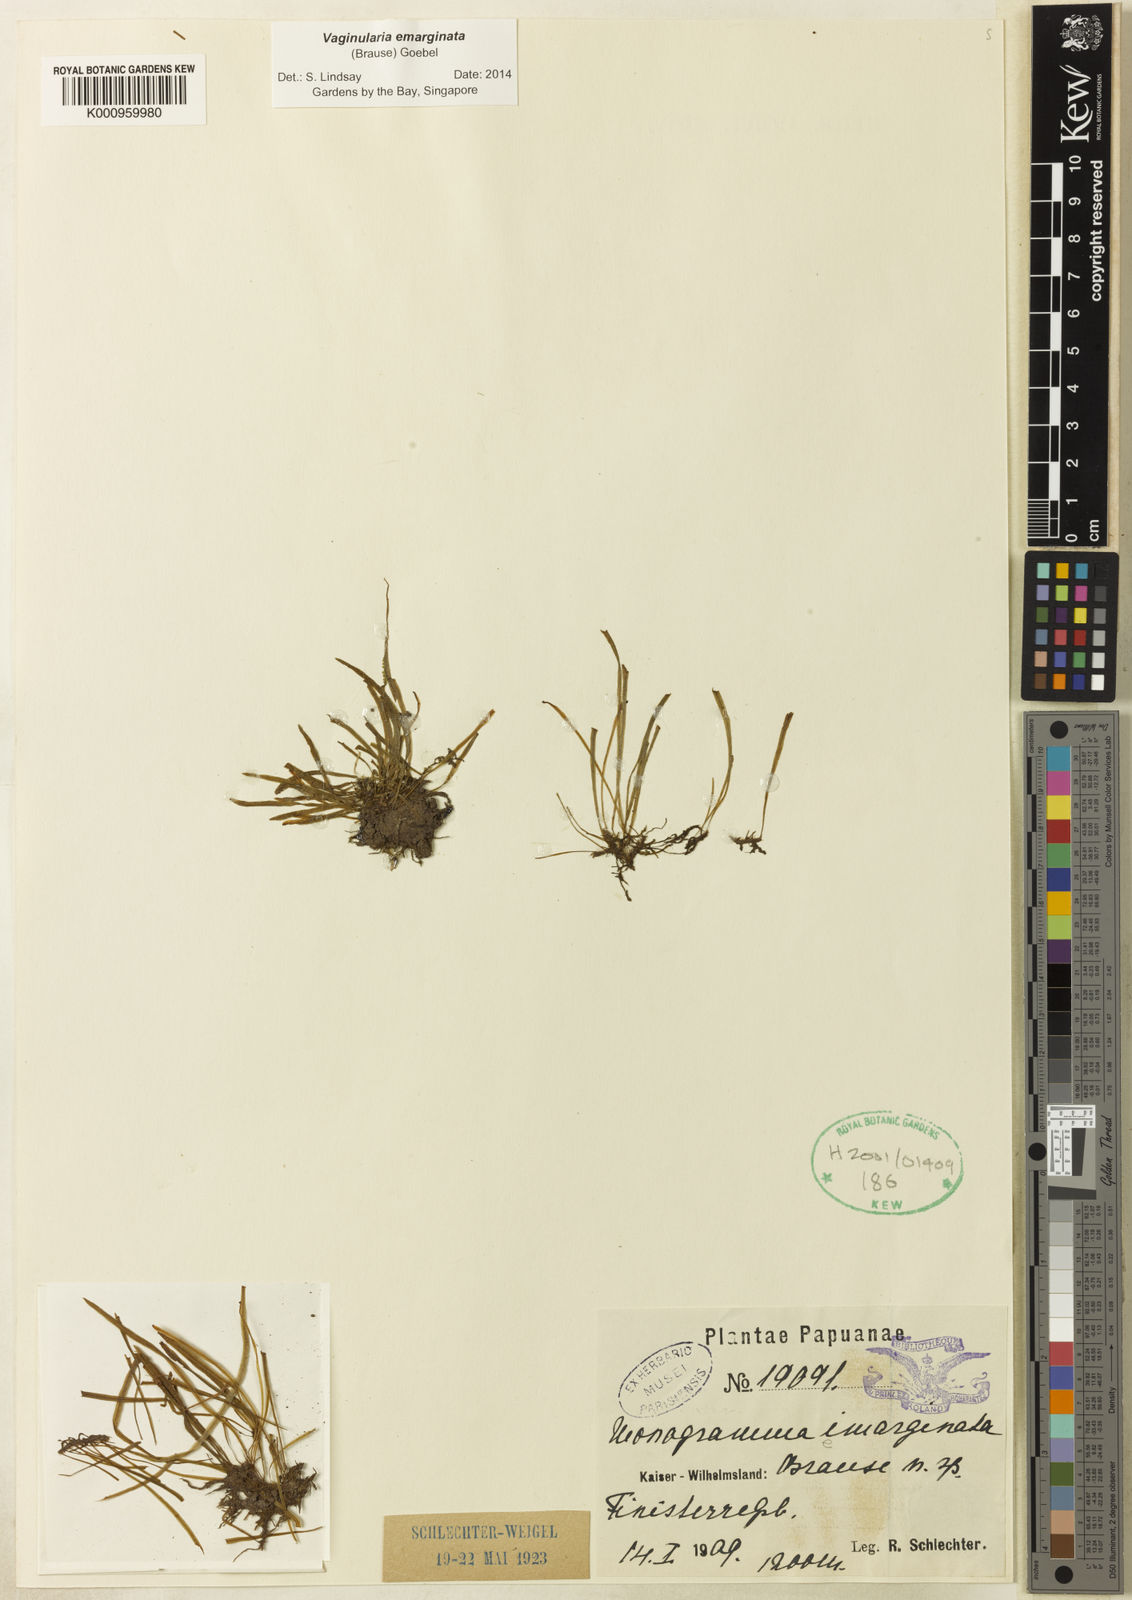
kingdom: Plantae
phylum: Tracheophyta
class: Polypodiopsida
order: Polypodiales
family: Pteridaceae
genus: Vaginularia
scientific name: Vaginularia emarginata
